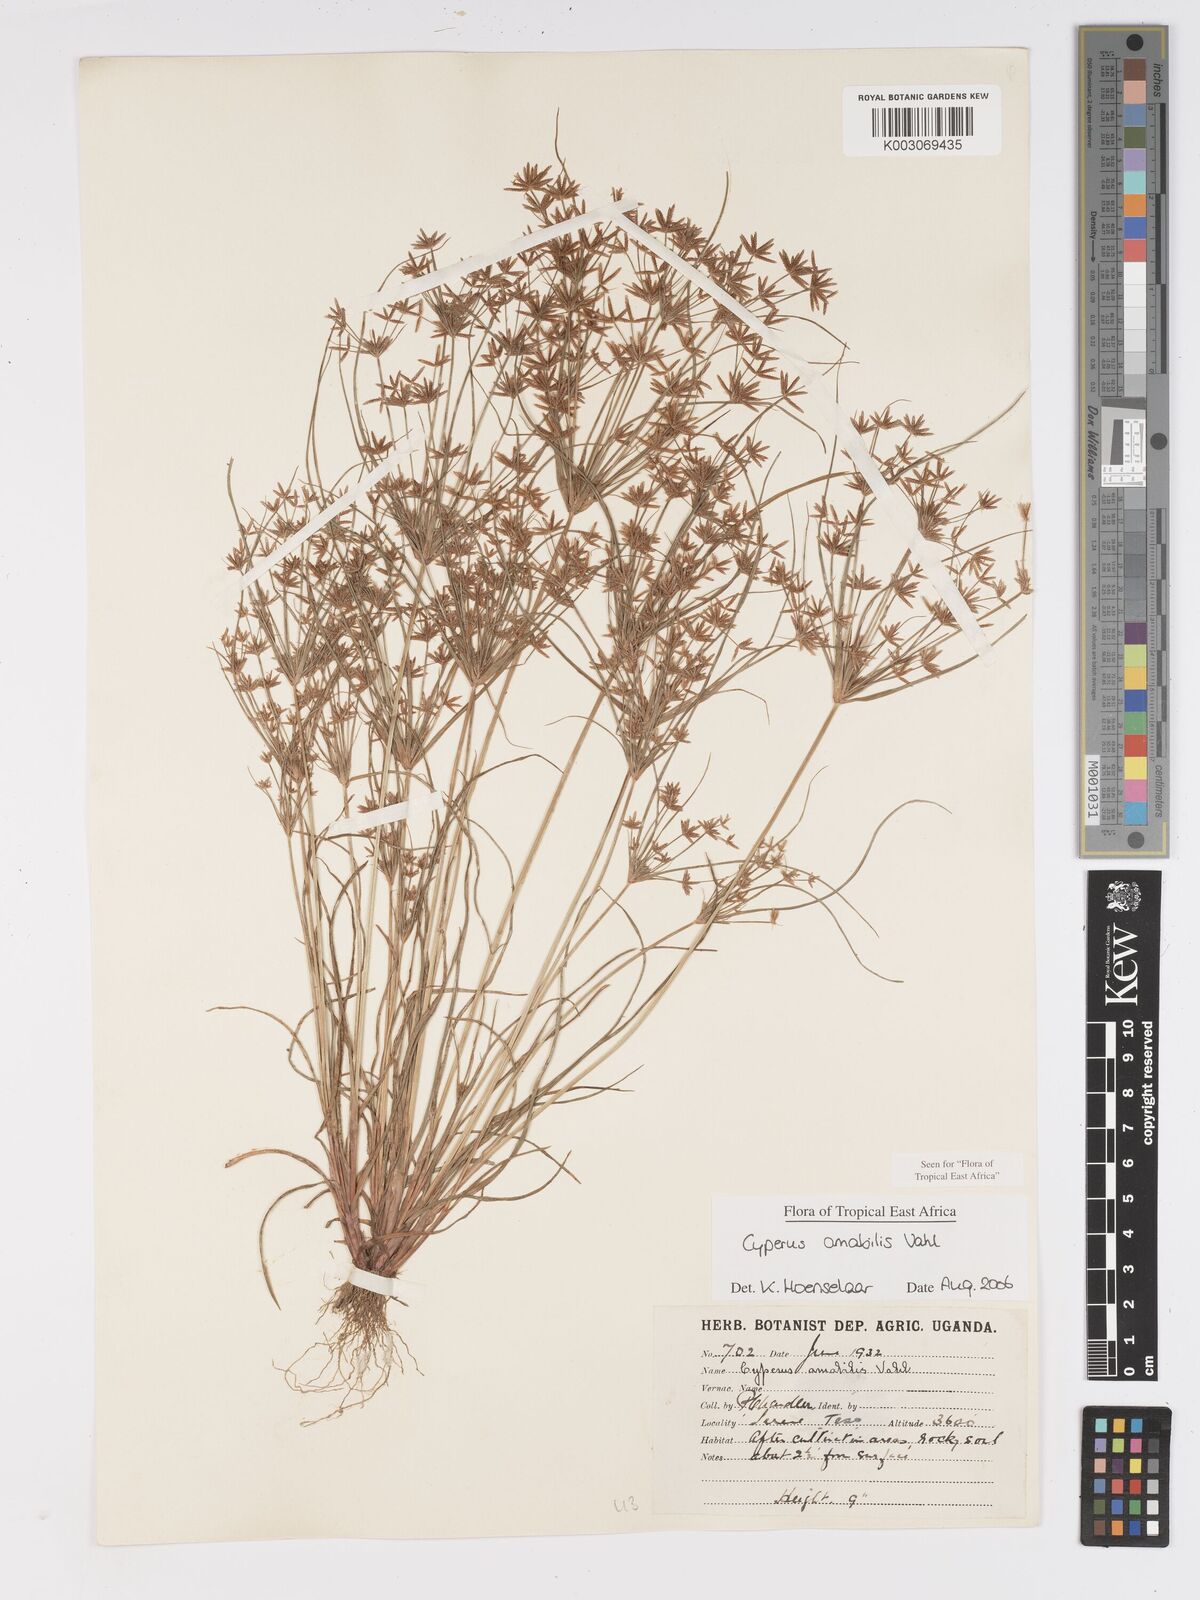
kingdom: Plantae
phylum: Tracheophyta
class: Liliopsida
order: Poales
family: Cyperaceae
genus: Cyperus
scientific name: Cyperus amabilis
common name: Foothill flat sedge
